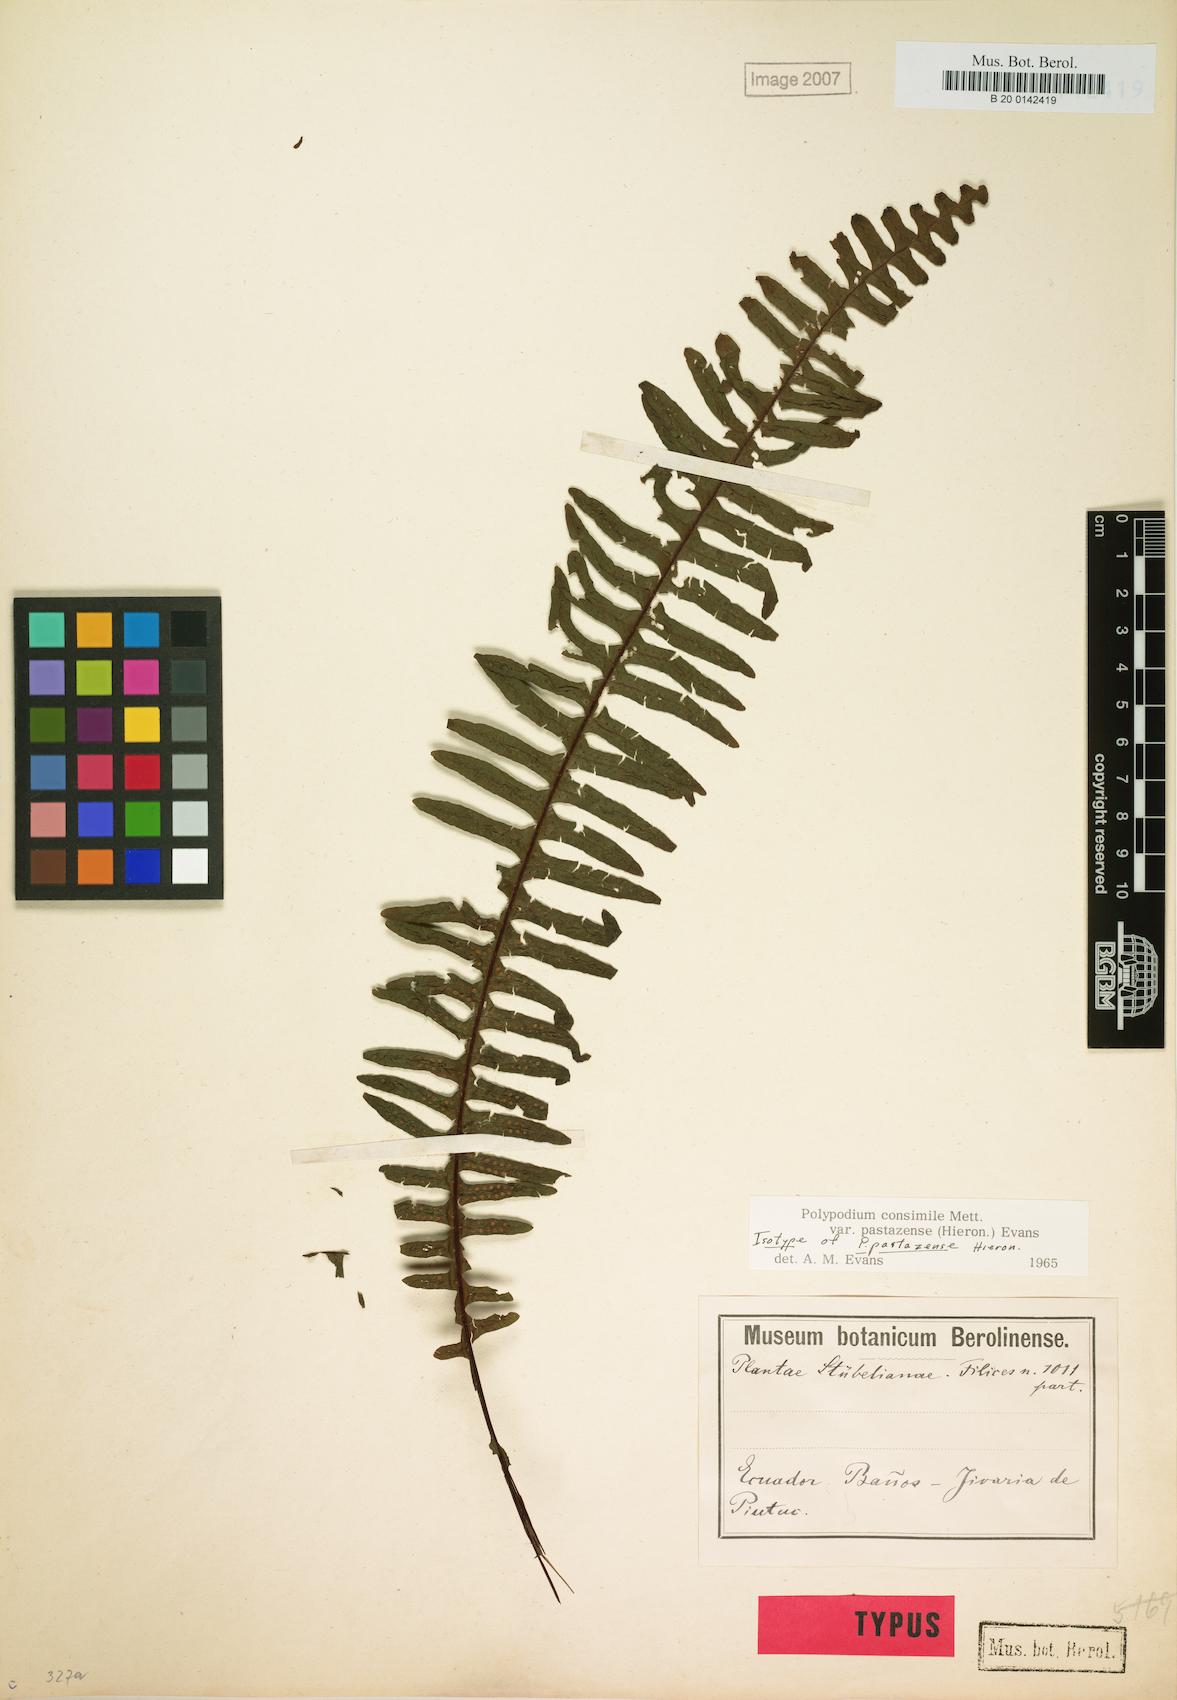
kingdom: Plantae
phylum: Tracheophyta
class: Polypodiopsida
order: Polypodiales
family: Polypodiaceae
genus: Pecluma
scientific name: Pecluma pastazensis
